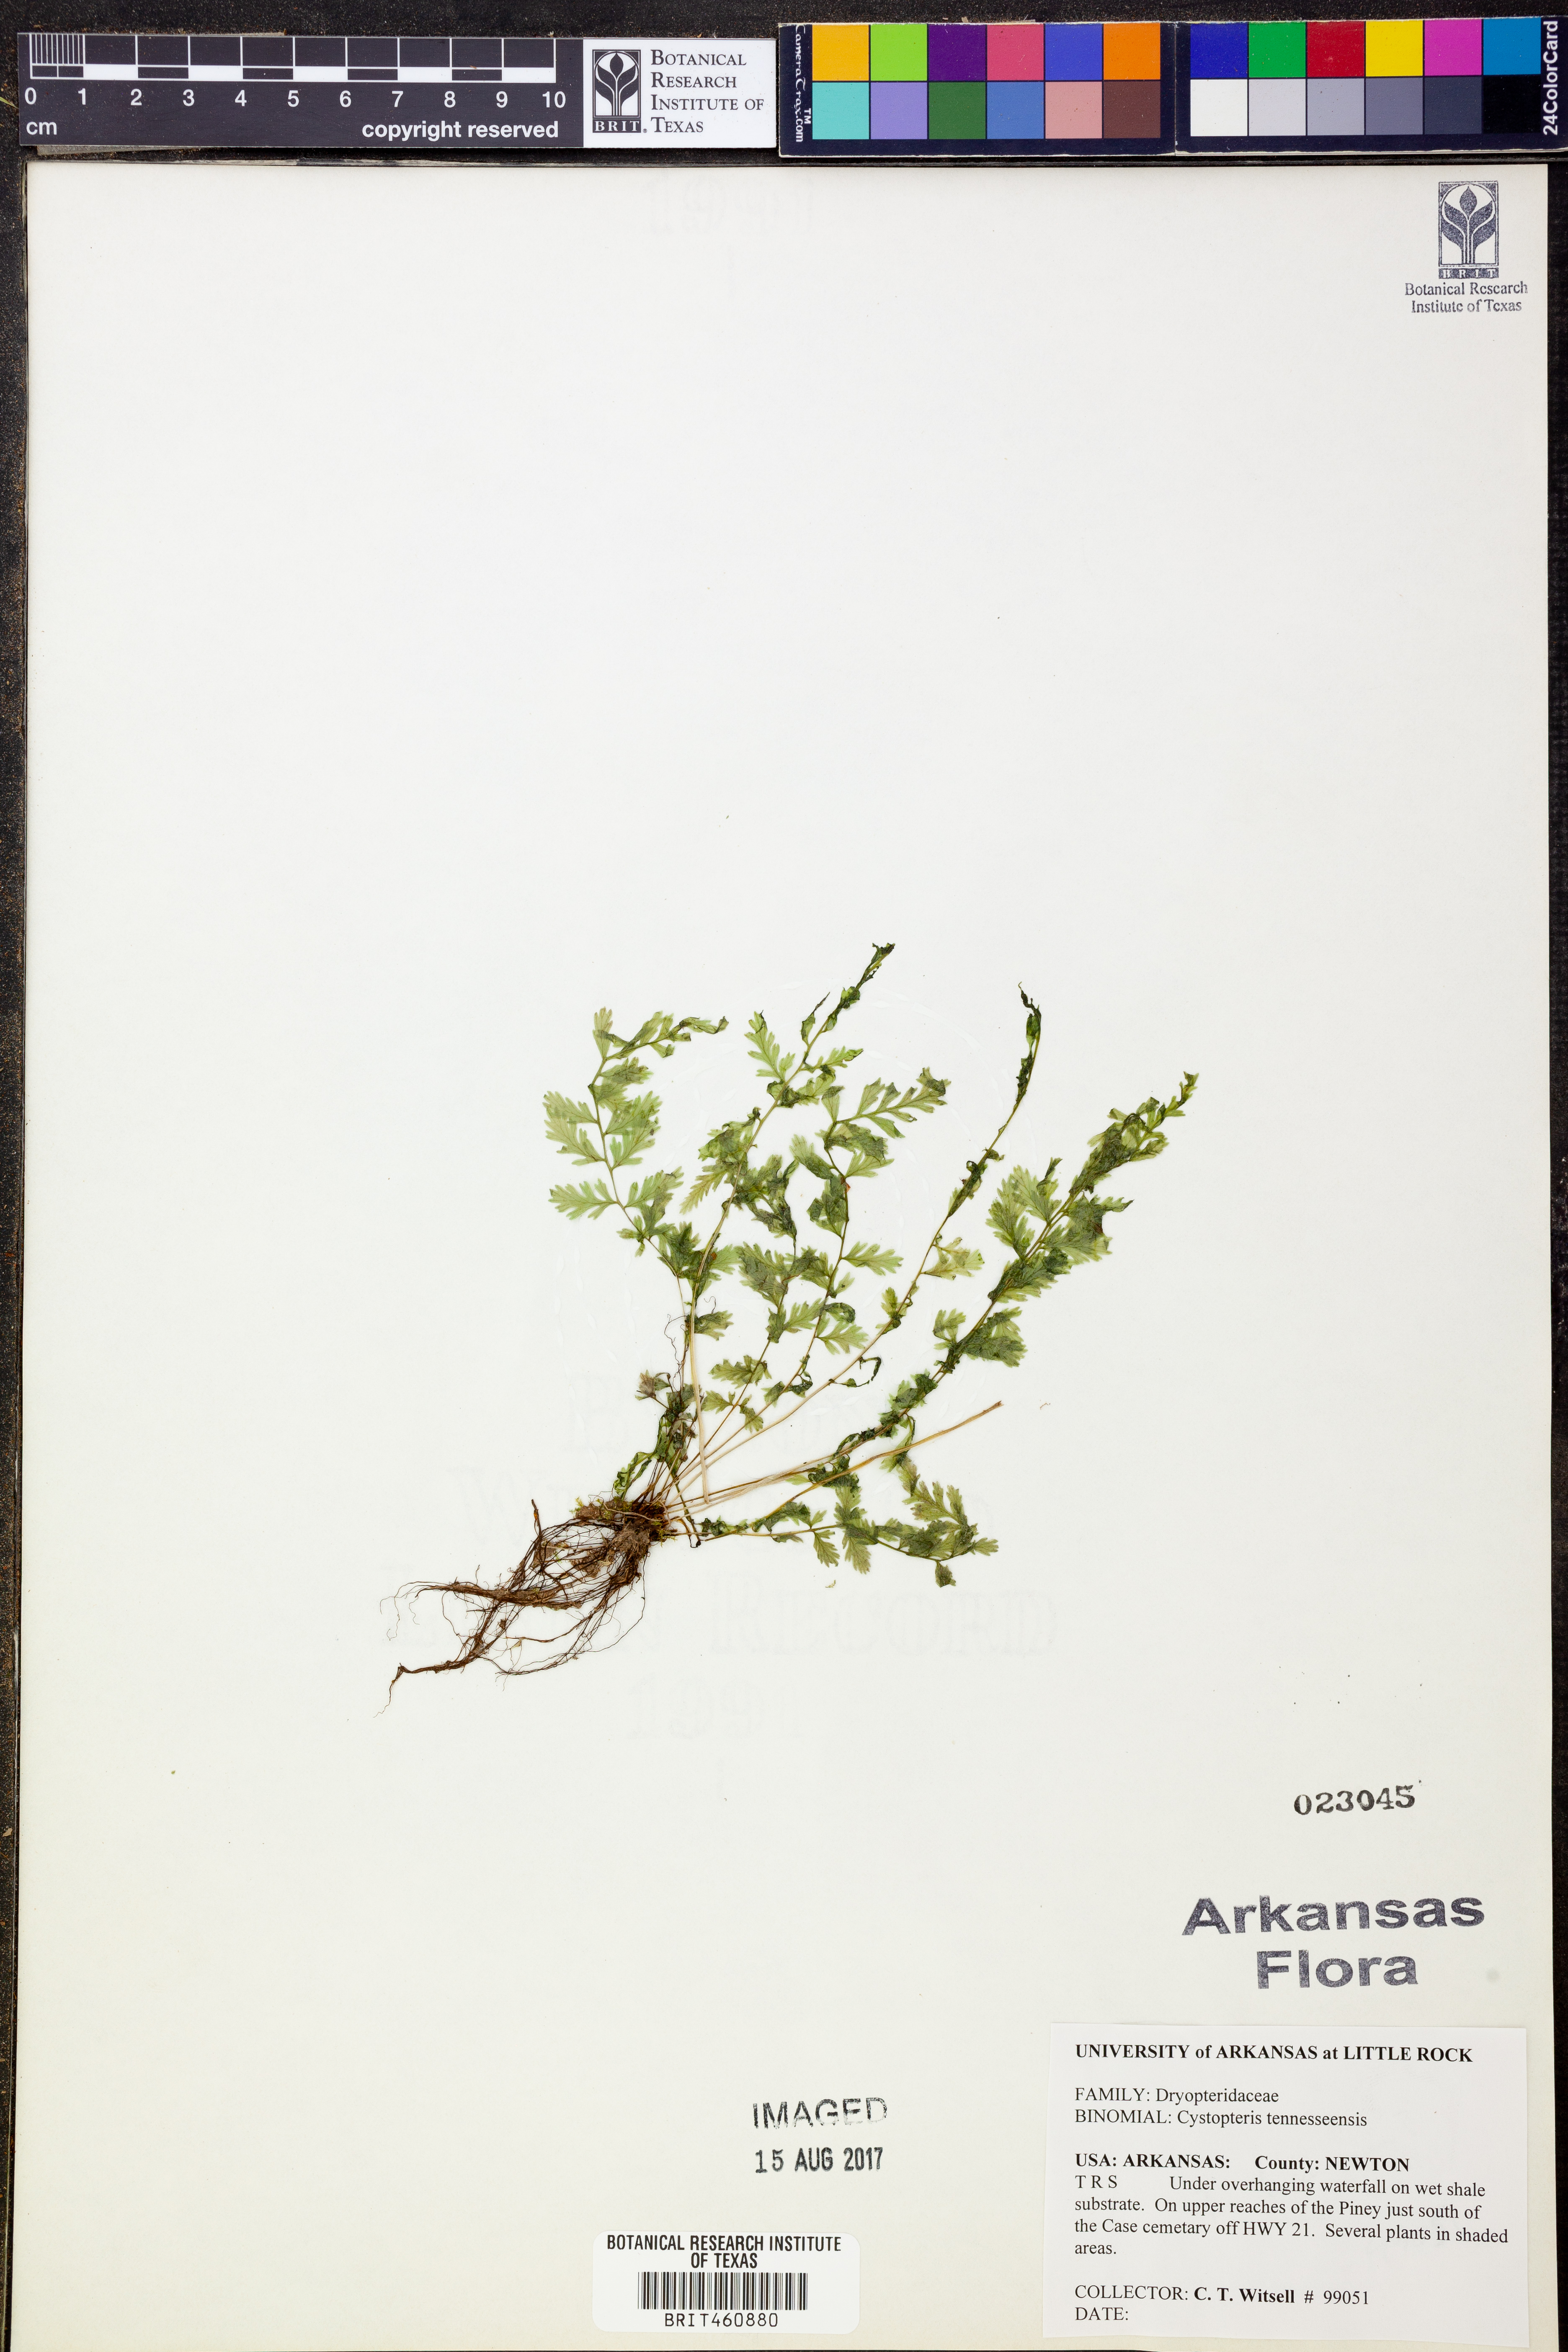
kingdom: Plantae
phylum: Tracheophyta
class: Polypodiopsida
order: Polypodiales
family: Cystopteridaceae
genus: Cystopteris
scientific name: Cystopteris tennesseensis
